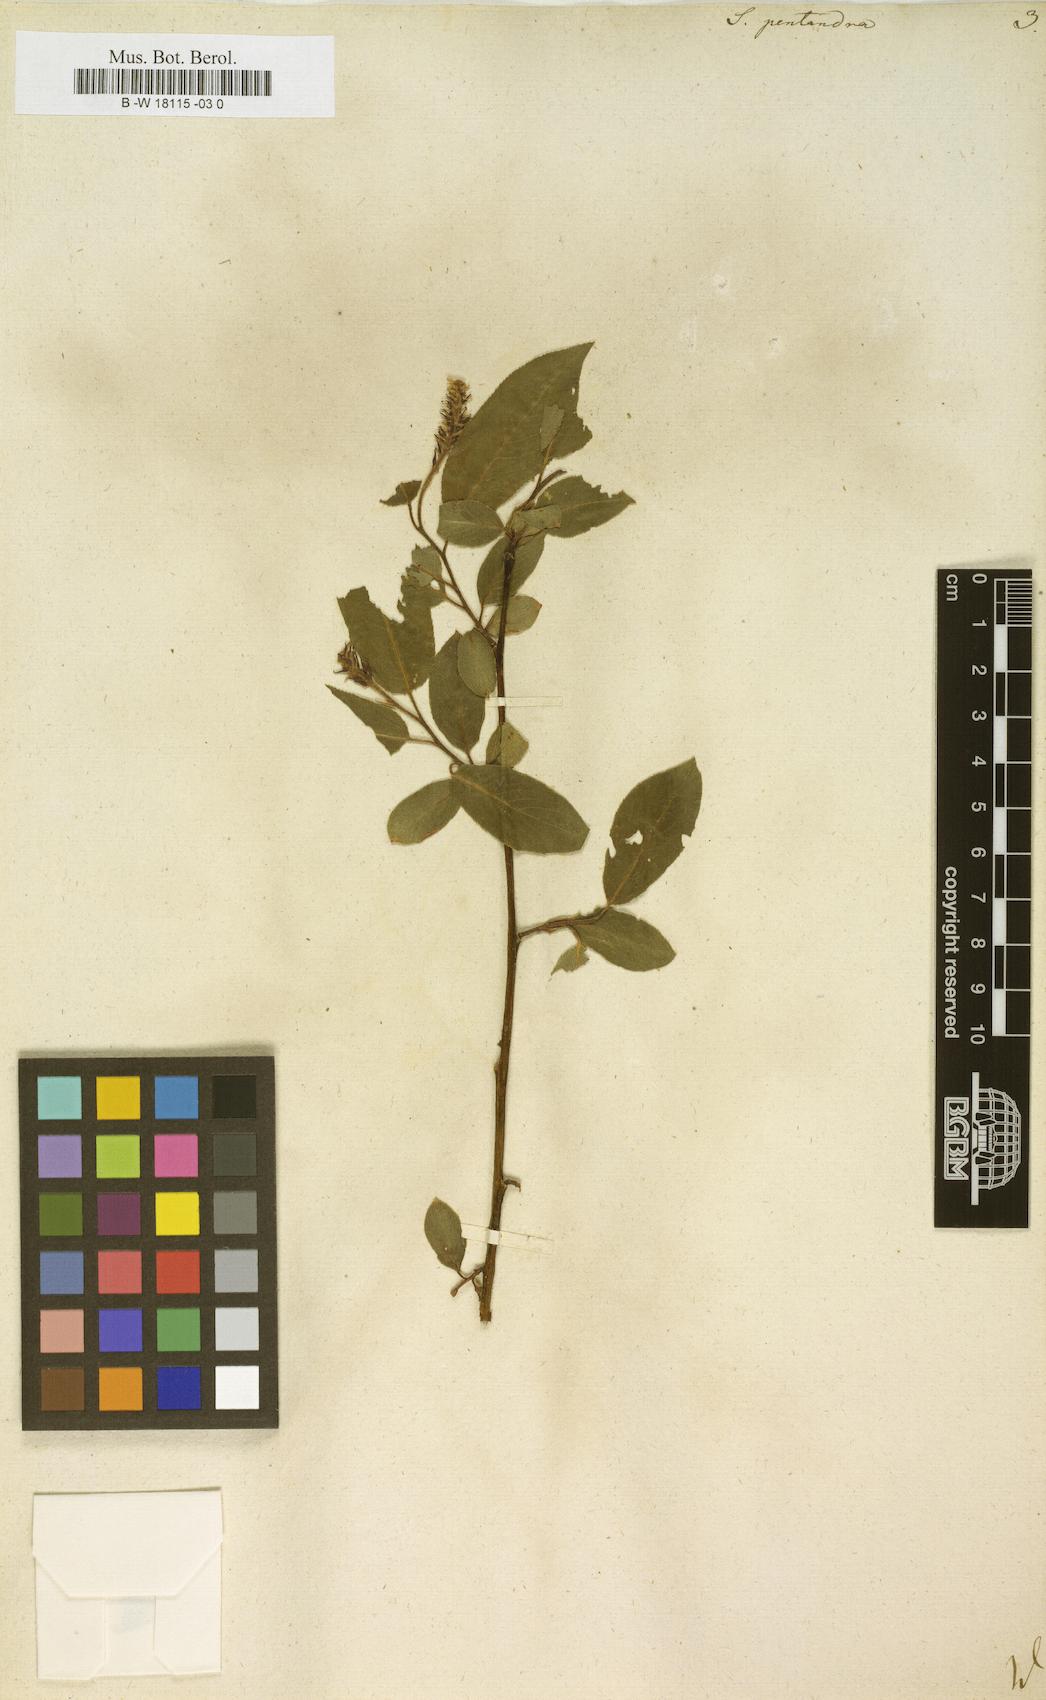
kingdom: Plantae
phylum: Tracheophyta
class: Magnoliopsida
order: Malpighiales
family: Salicaceae
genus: Salix
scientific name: Salix pentandra
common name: Bay willow
